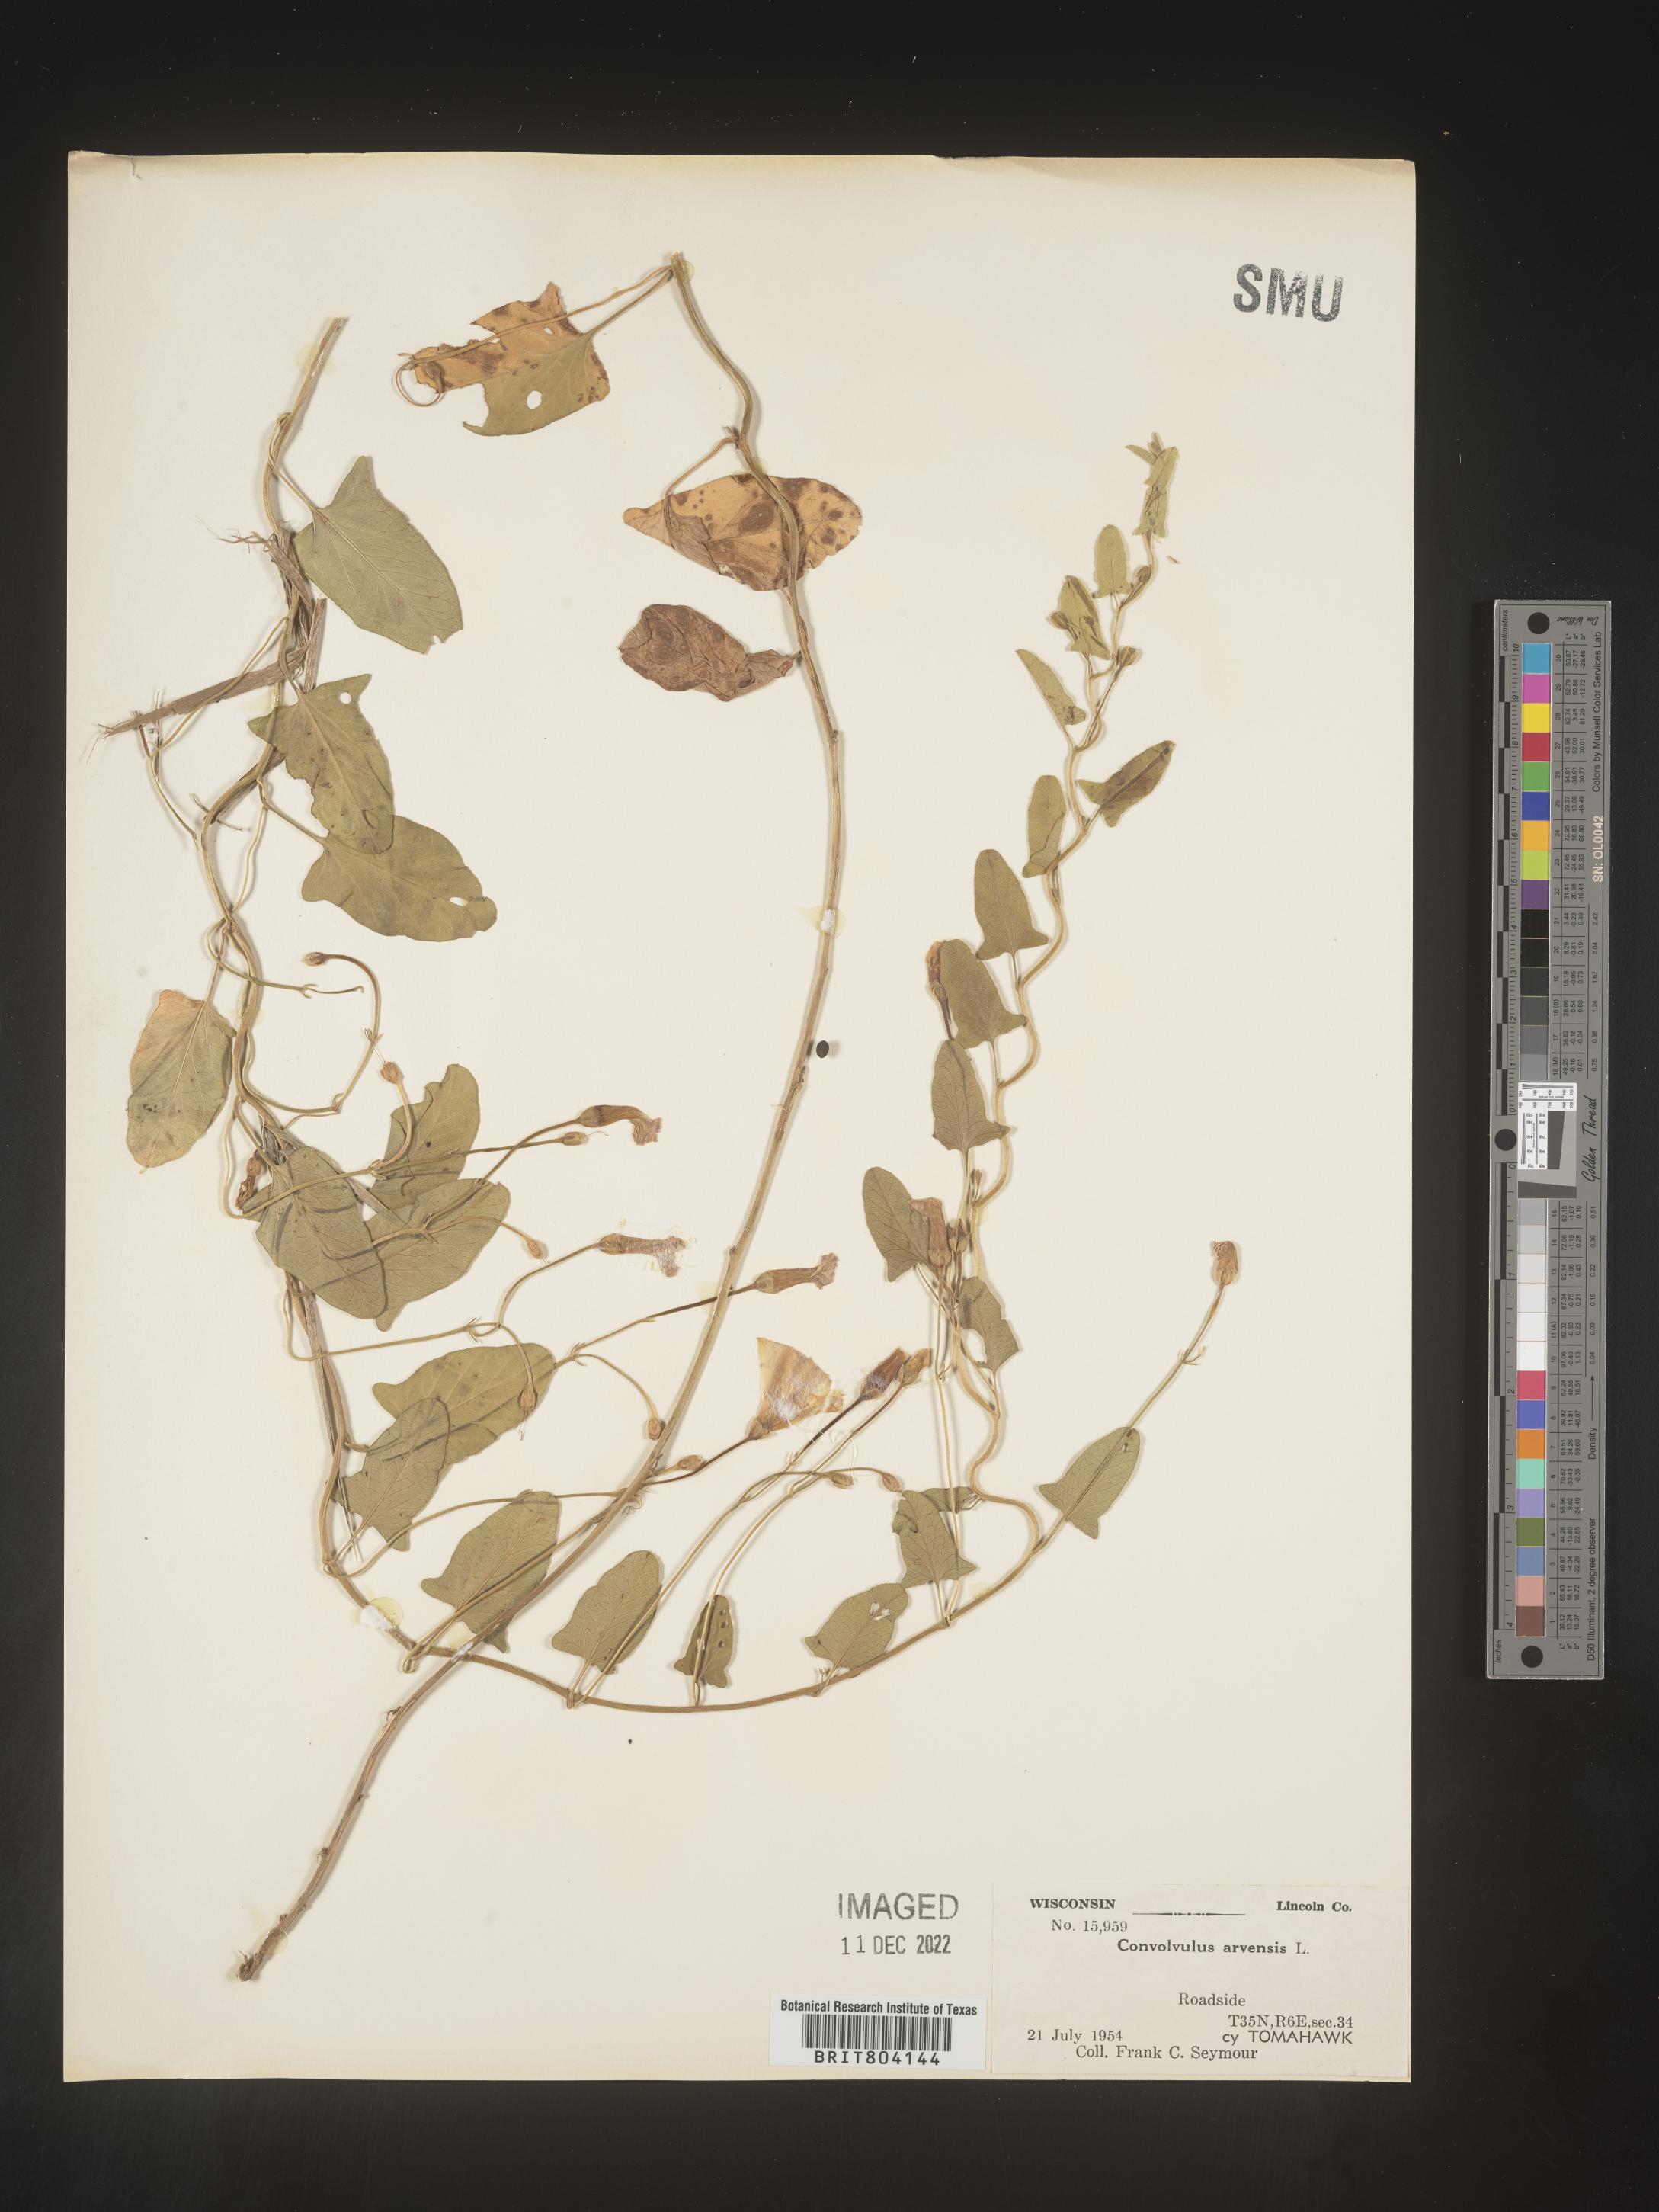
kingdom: Plantae
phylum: Tracheophyta
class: Magnoliopsida
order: Solanales
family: Convolvulaceae
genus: Convolvulus
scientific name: Convolvulus arvensis
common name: Field bindweed
